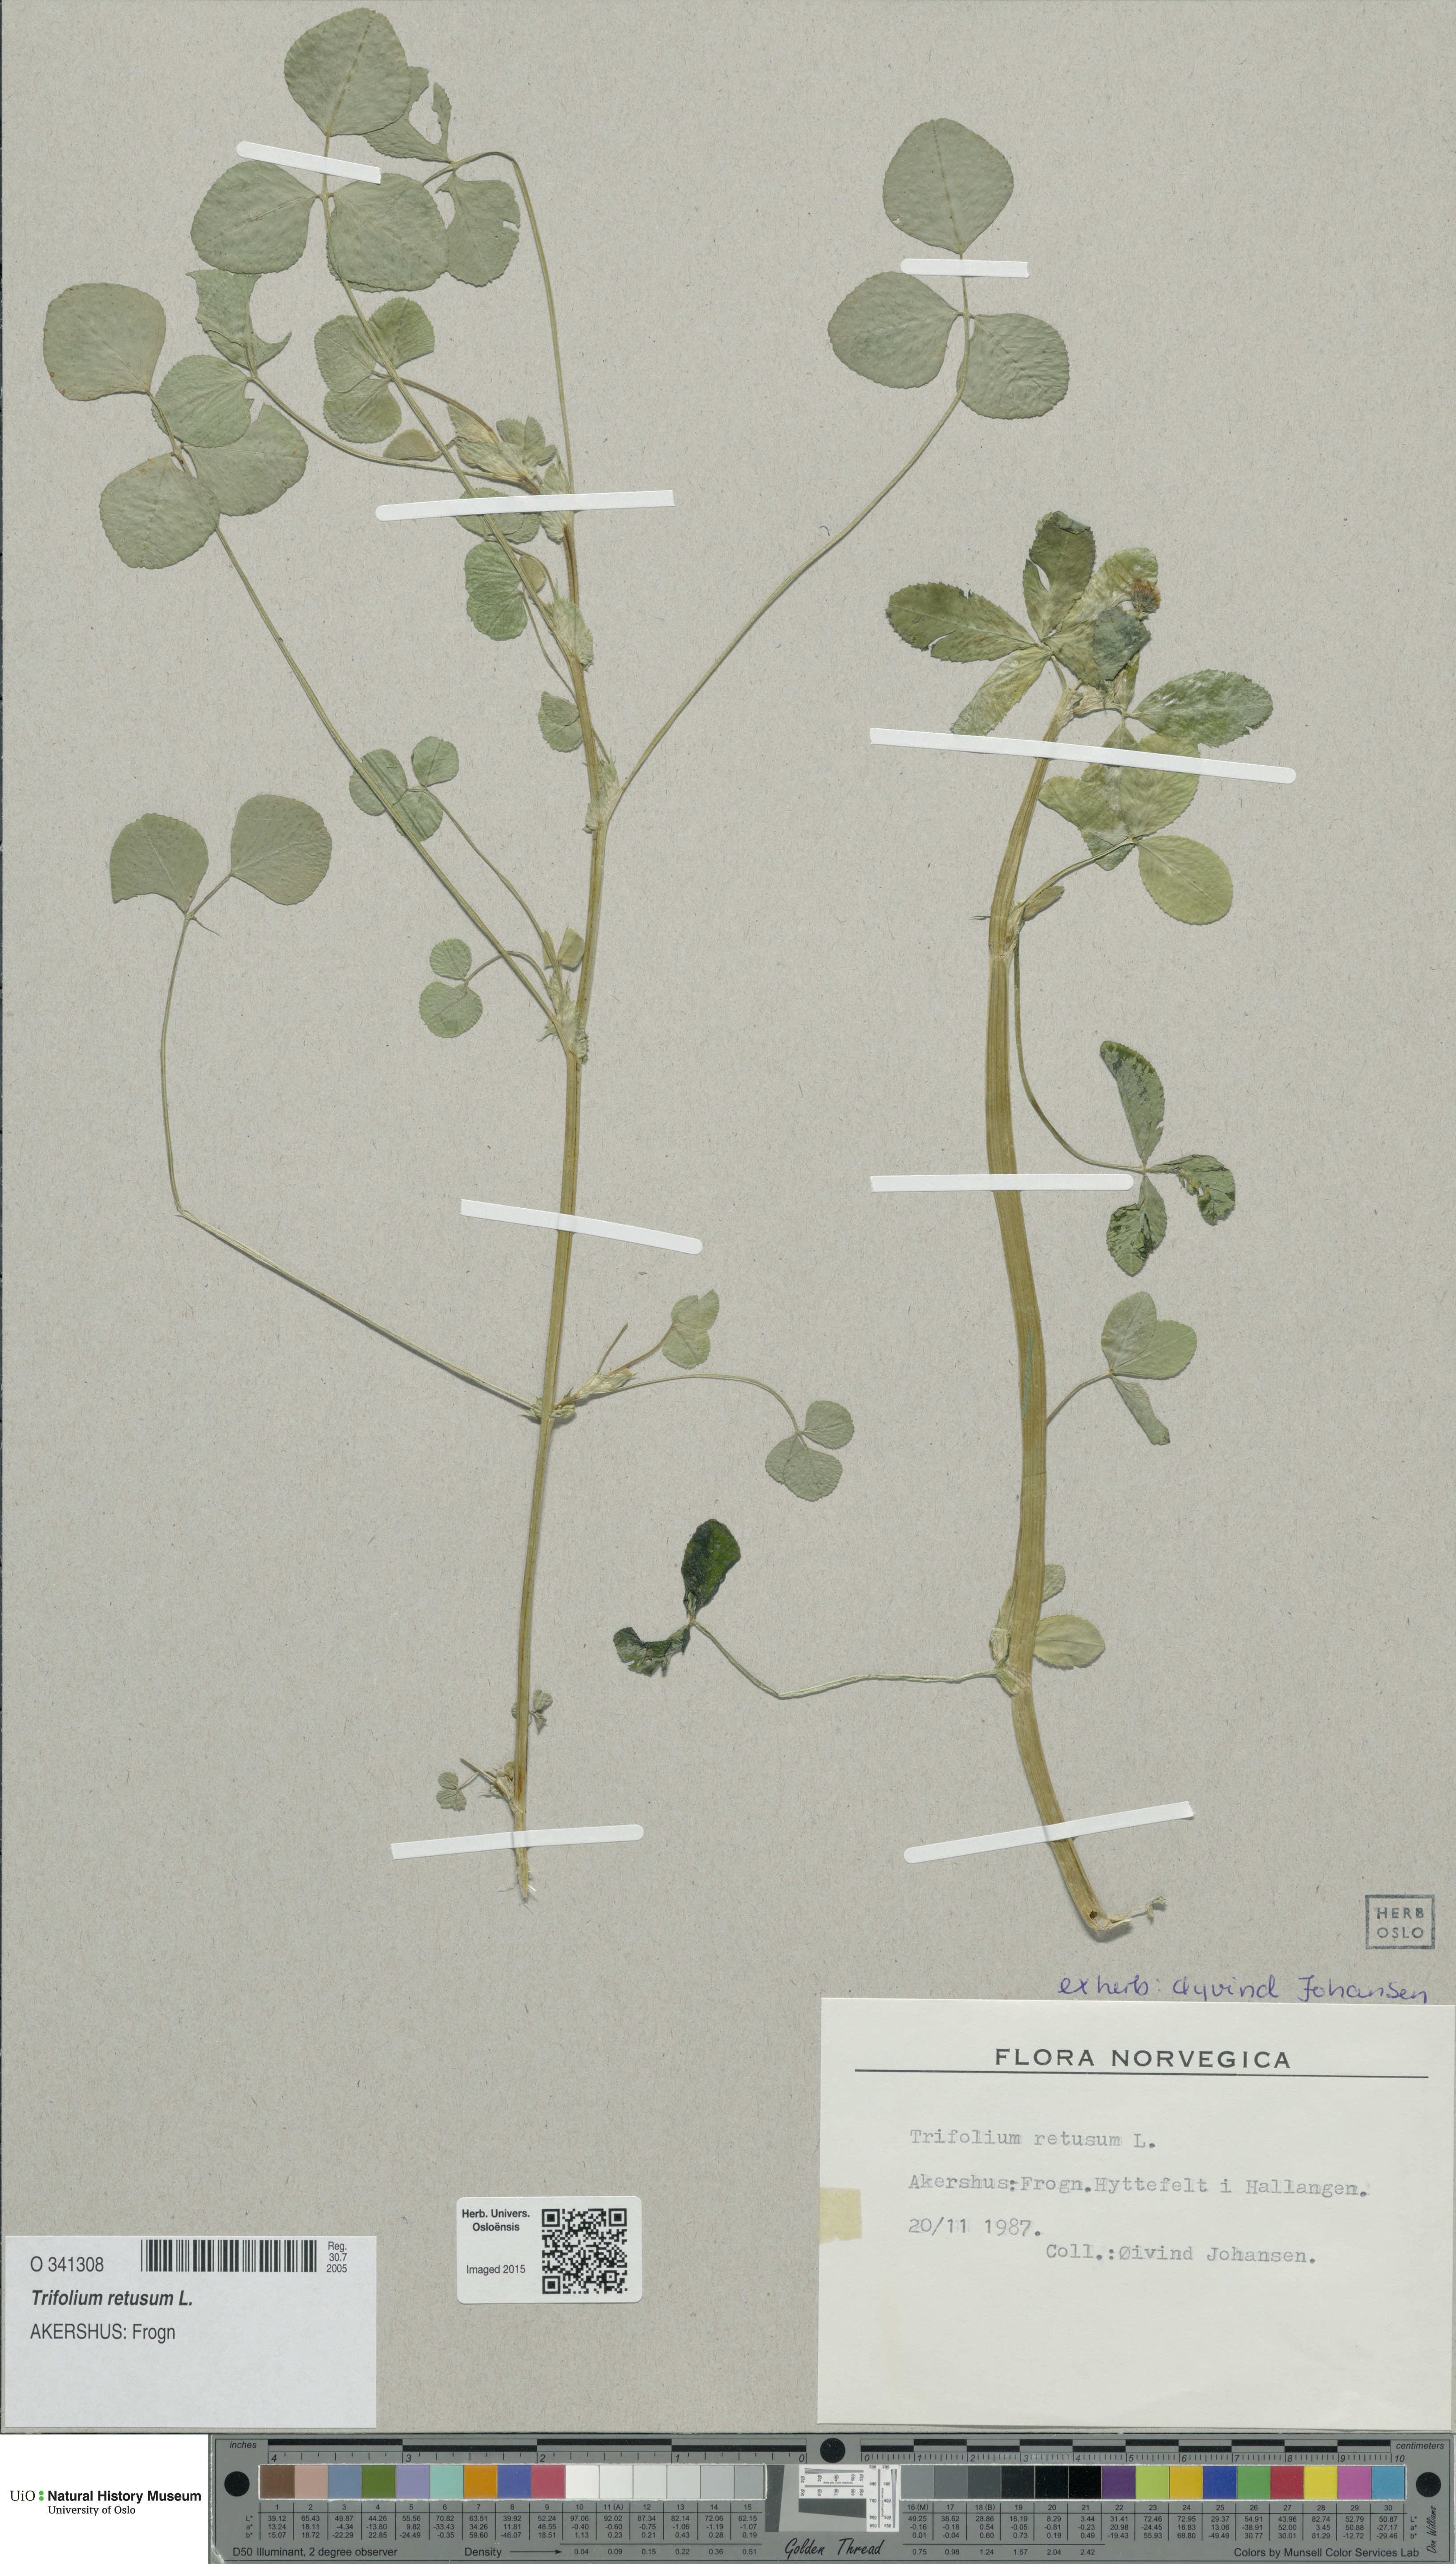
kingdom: Plantae
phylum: Tracheophyta
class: Magnoliopsida
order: Fabales
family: Fabaceae
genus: Trifolium
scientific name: Trifolium retusum
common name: Teasel clover
